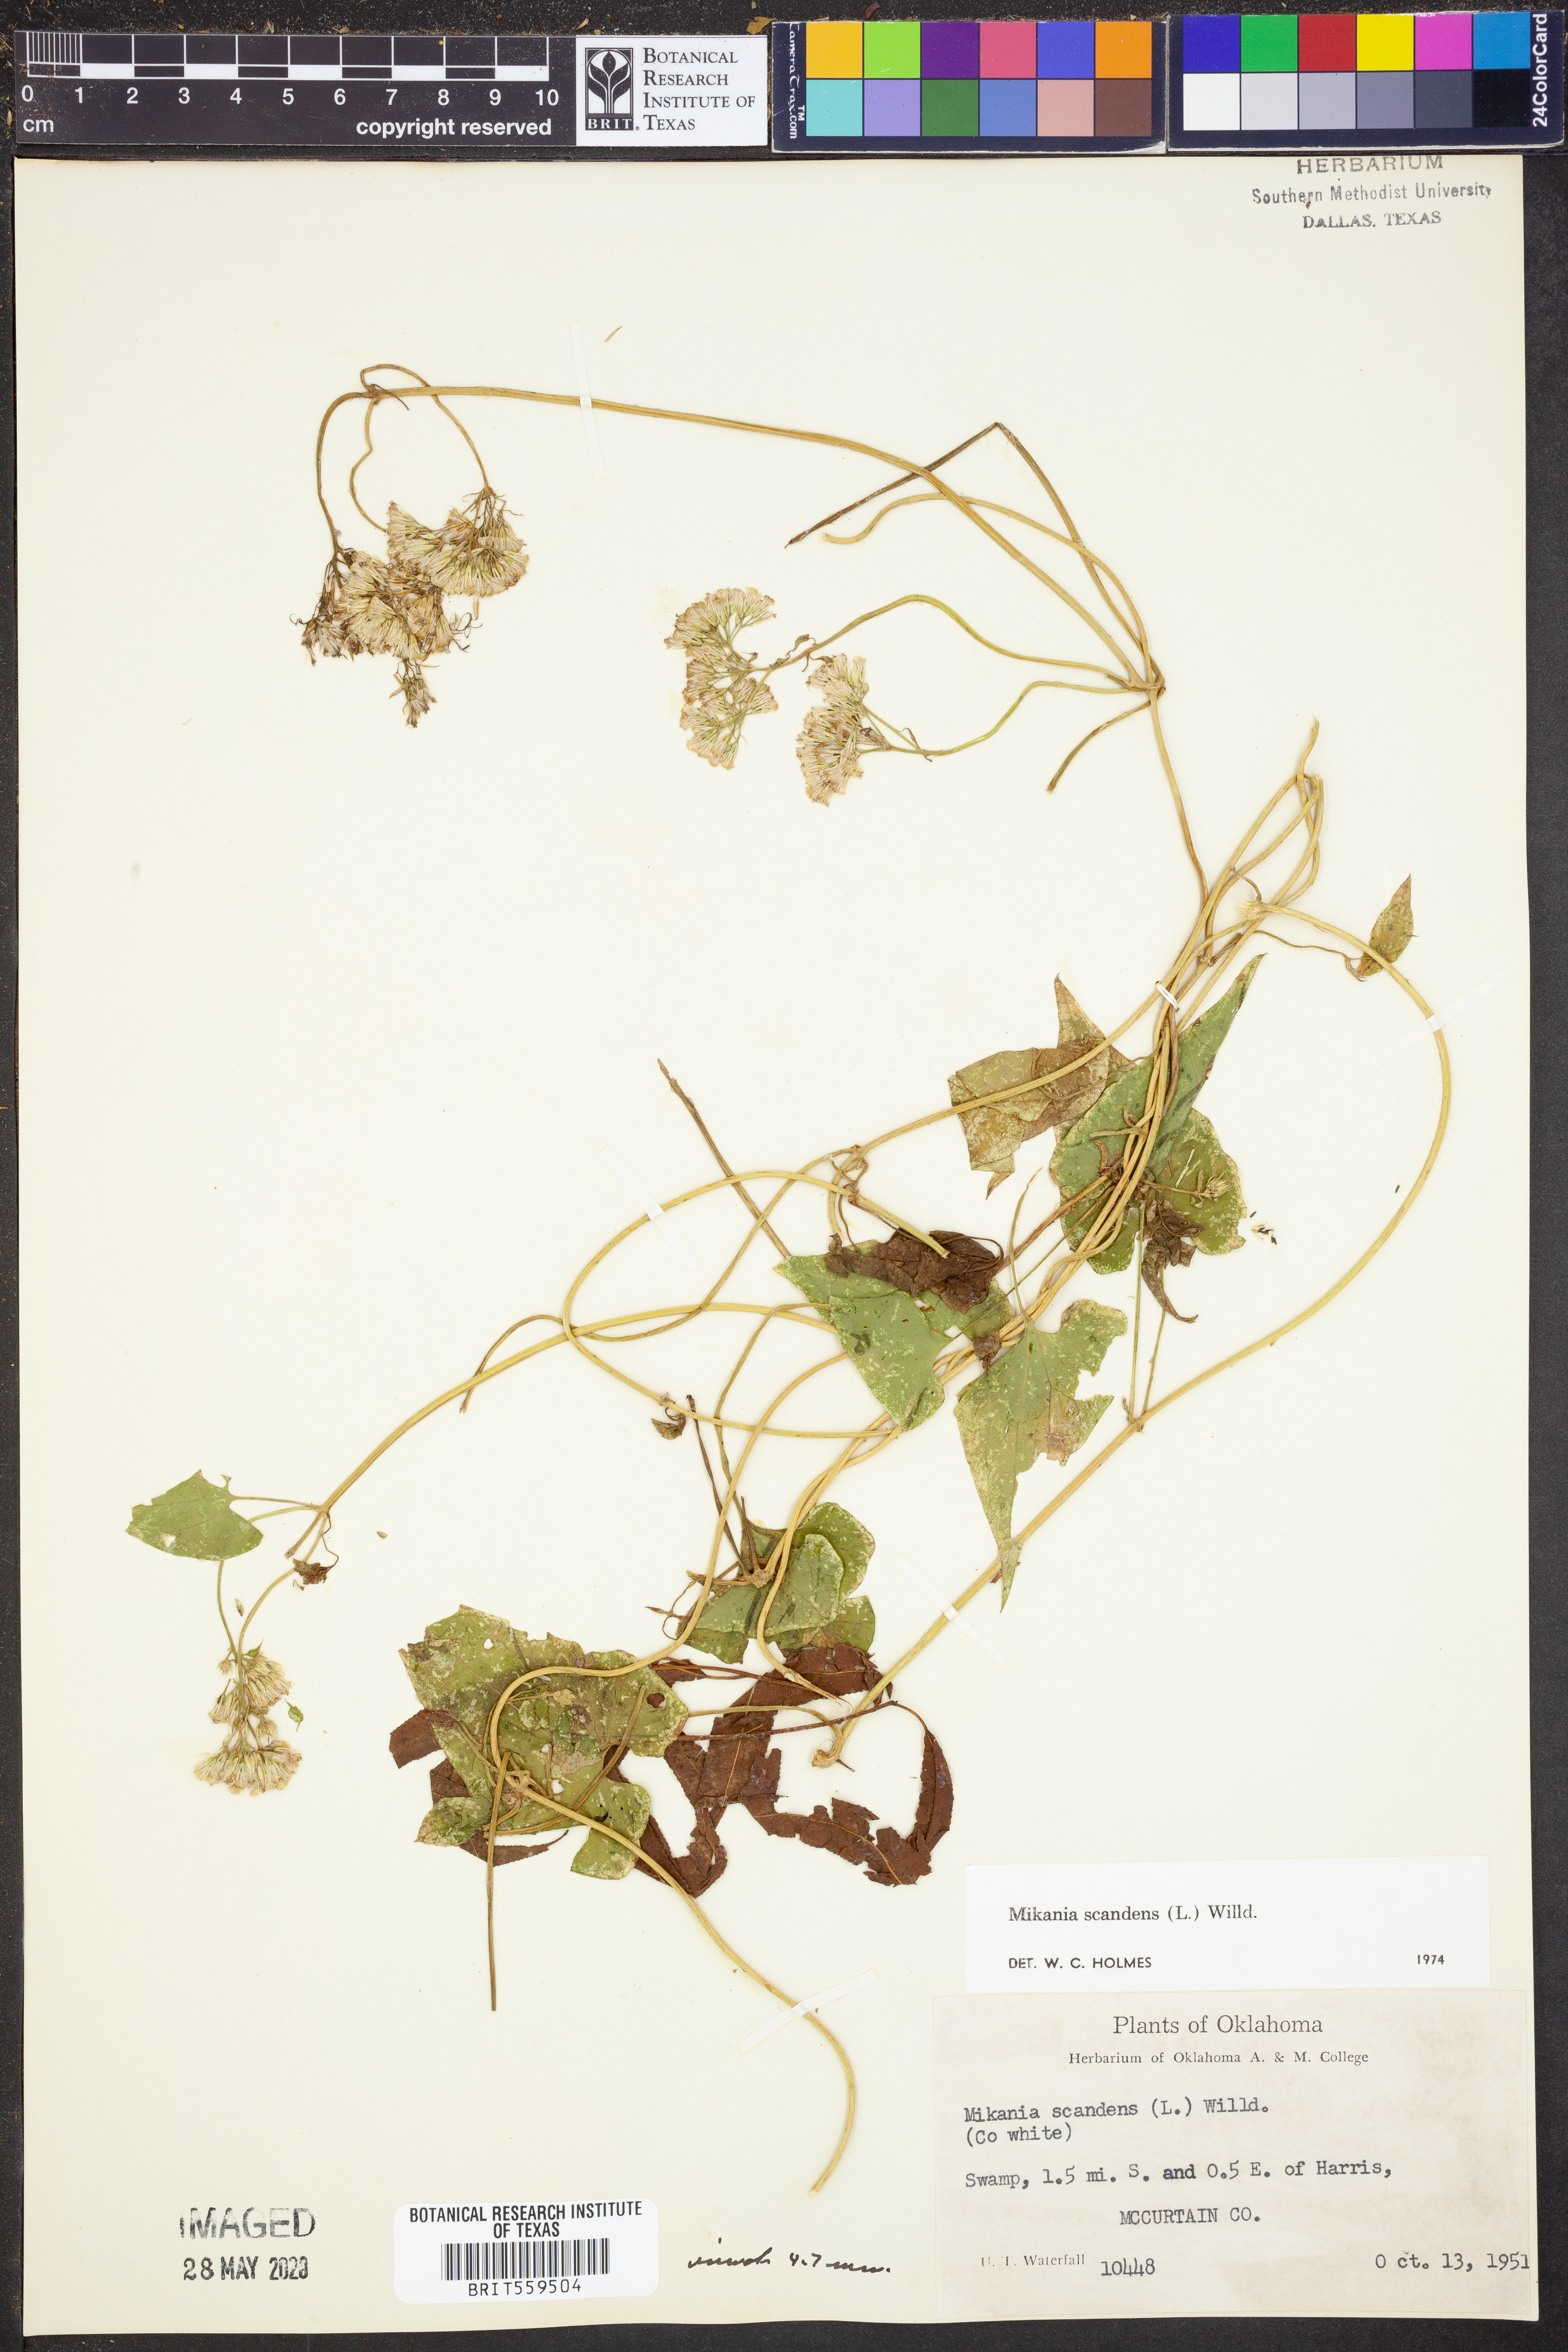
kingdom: Plantae
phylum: Tracheophyta
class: Magnoliopsida
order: Asterales
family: Asteraceae
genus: Mikania
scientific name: Mikania scandens
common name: Climbing hempvine
